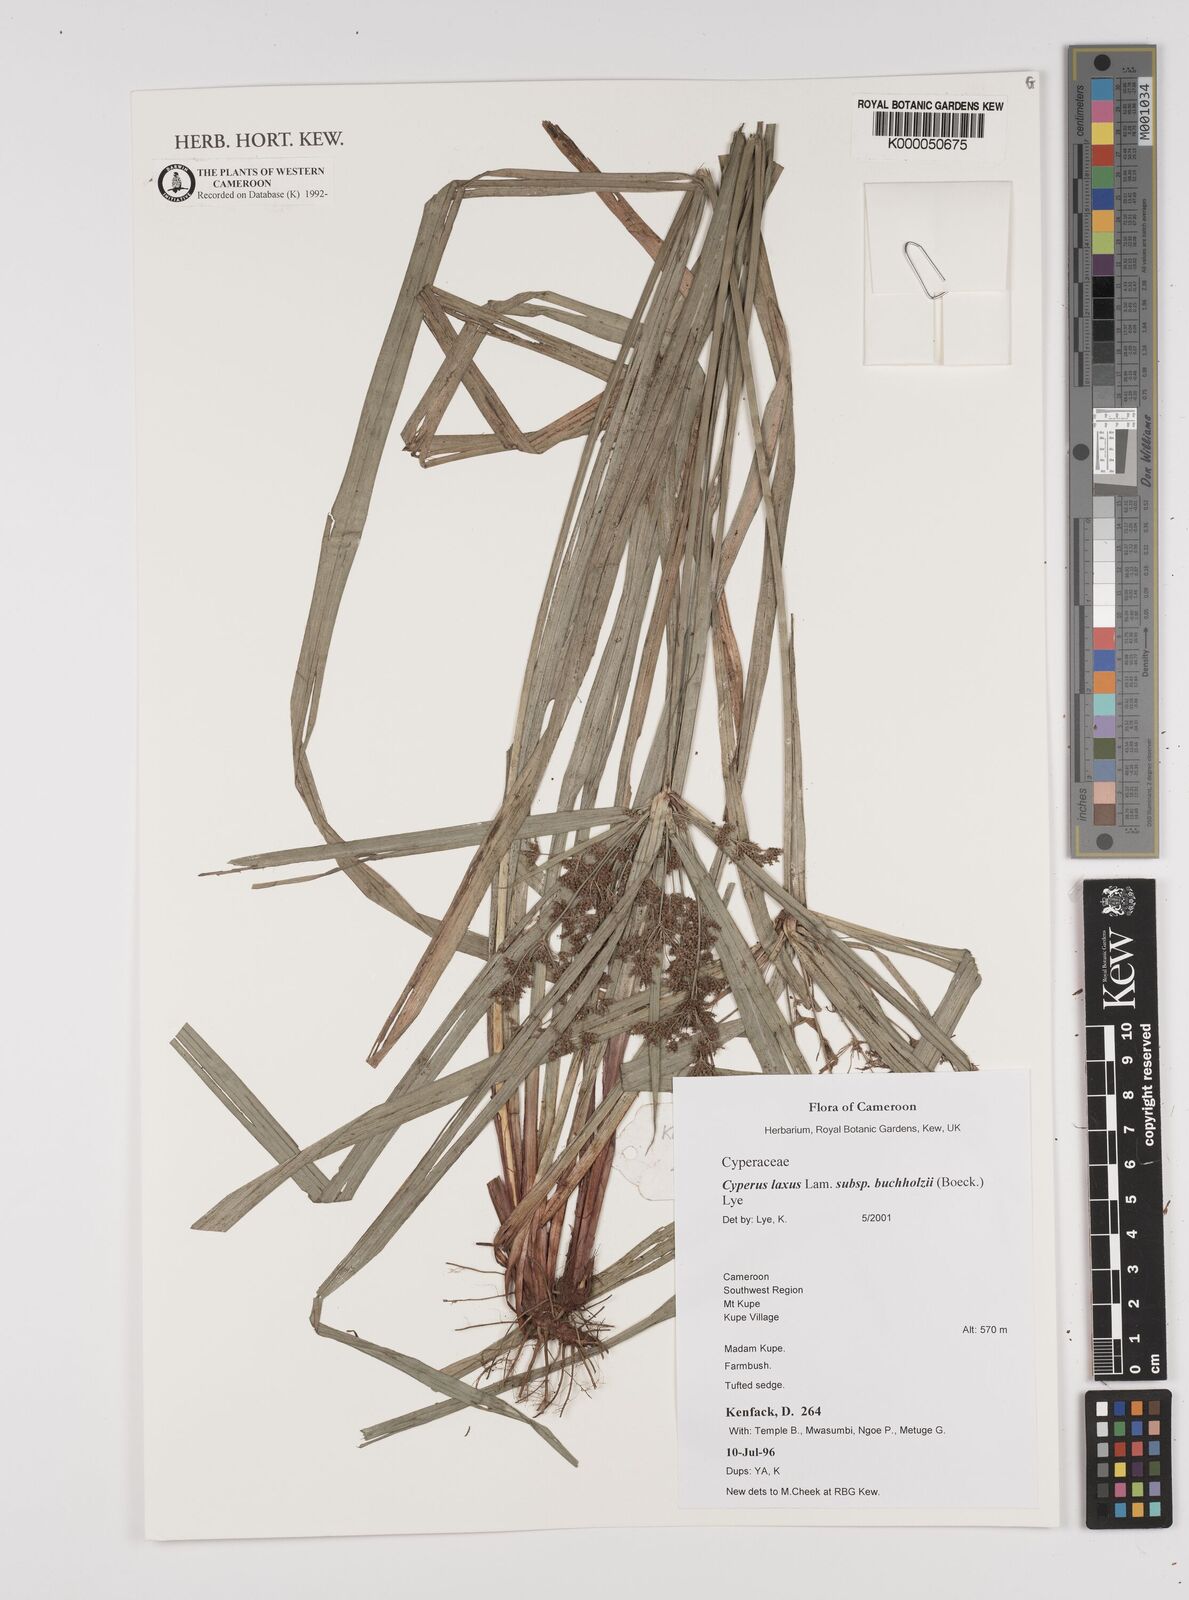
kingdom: Plantae
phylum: Tracheophyta
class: Liliopsida
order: Poales
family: Cyperaceae
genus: Cyperus
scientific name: Cyperus buchholzii
